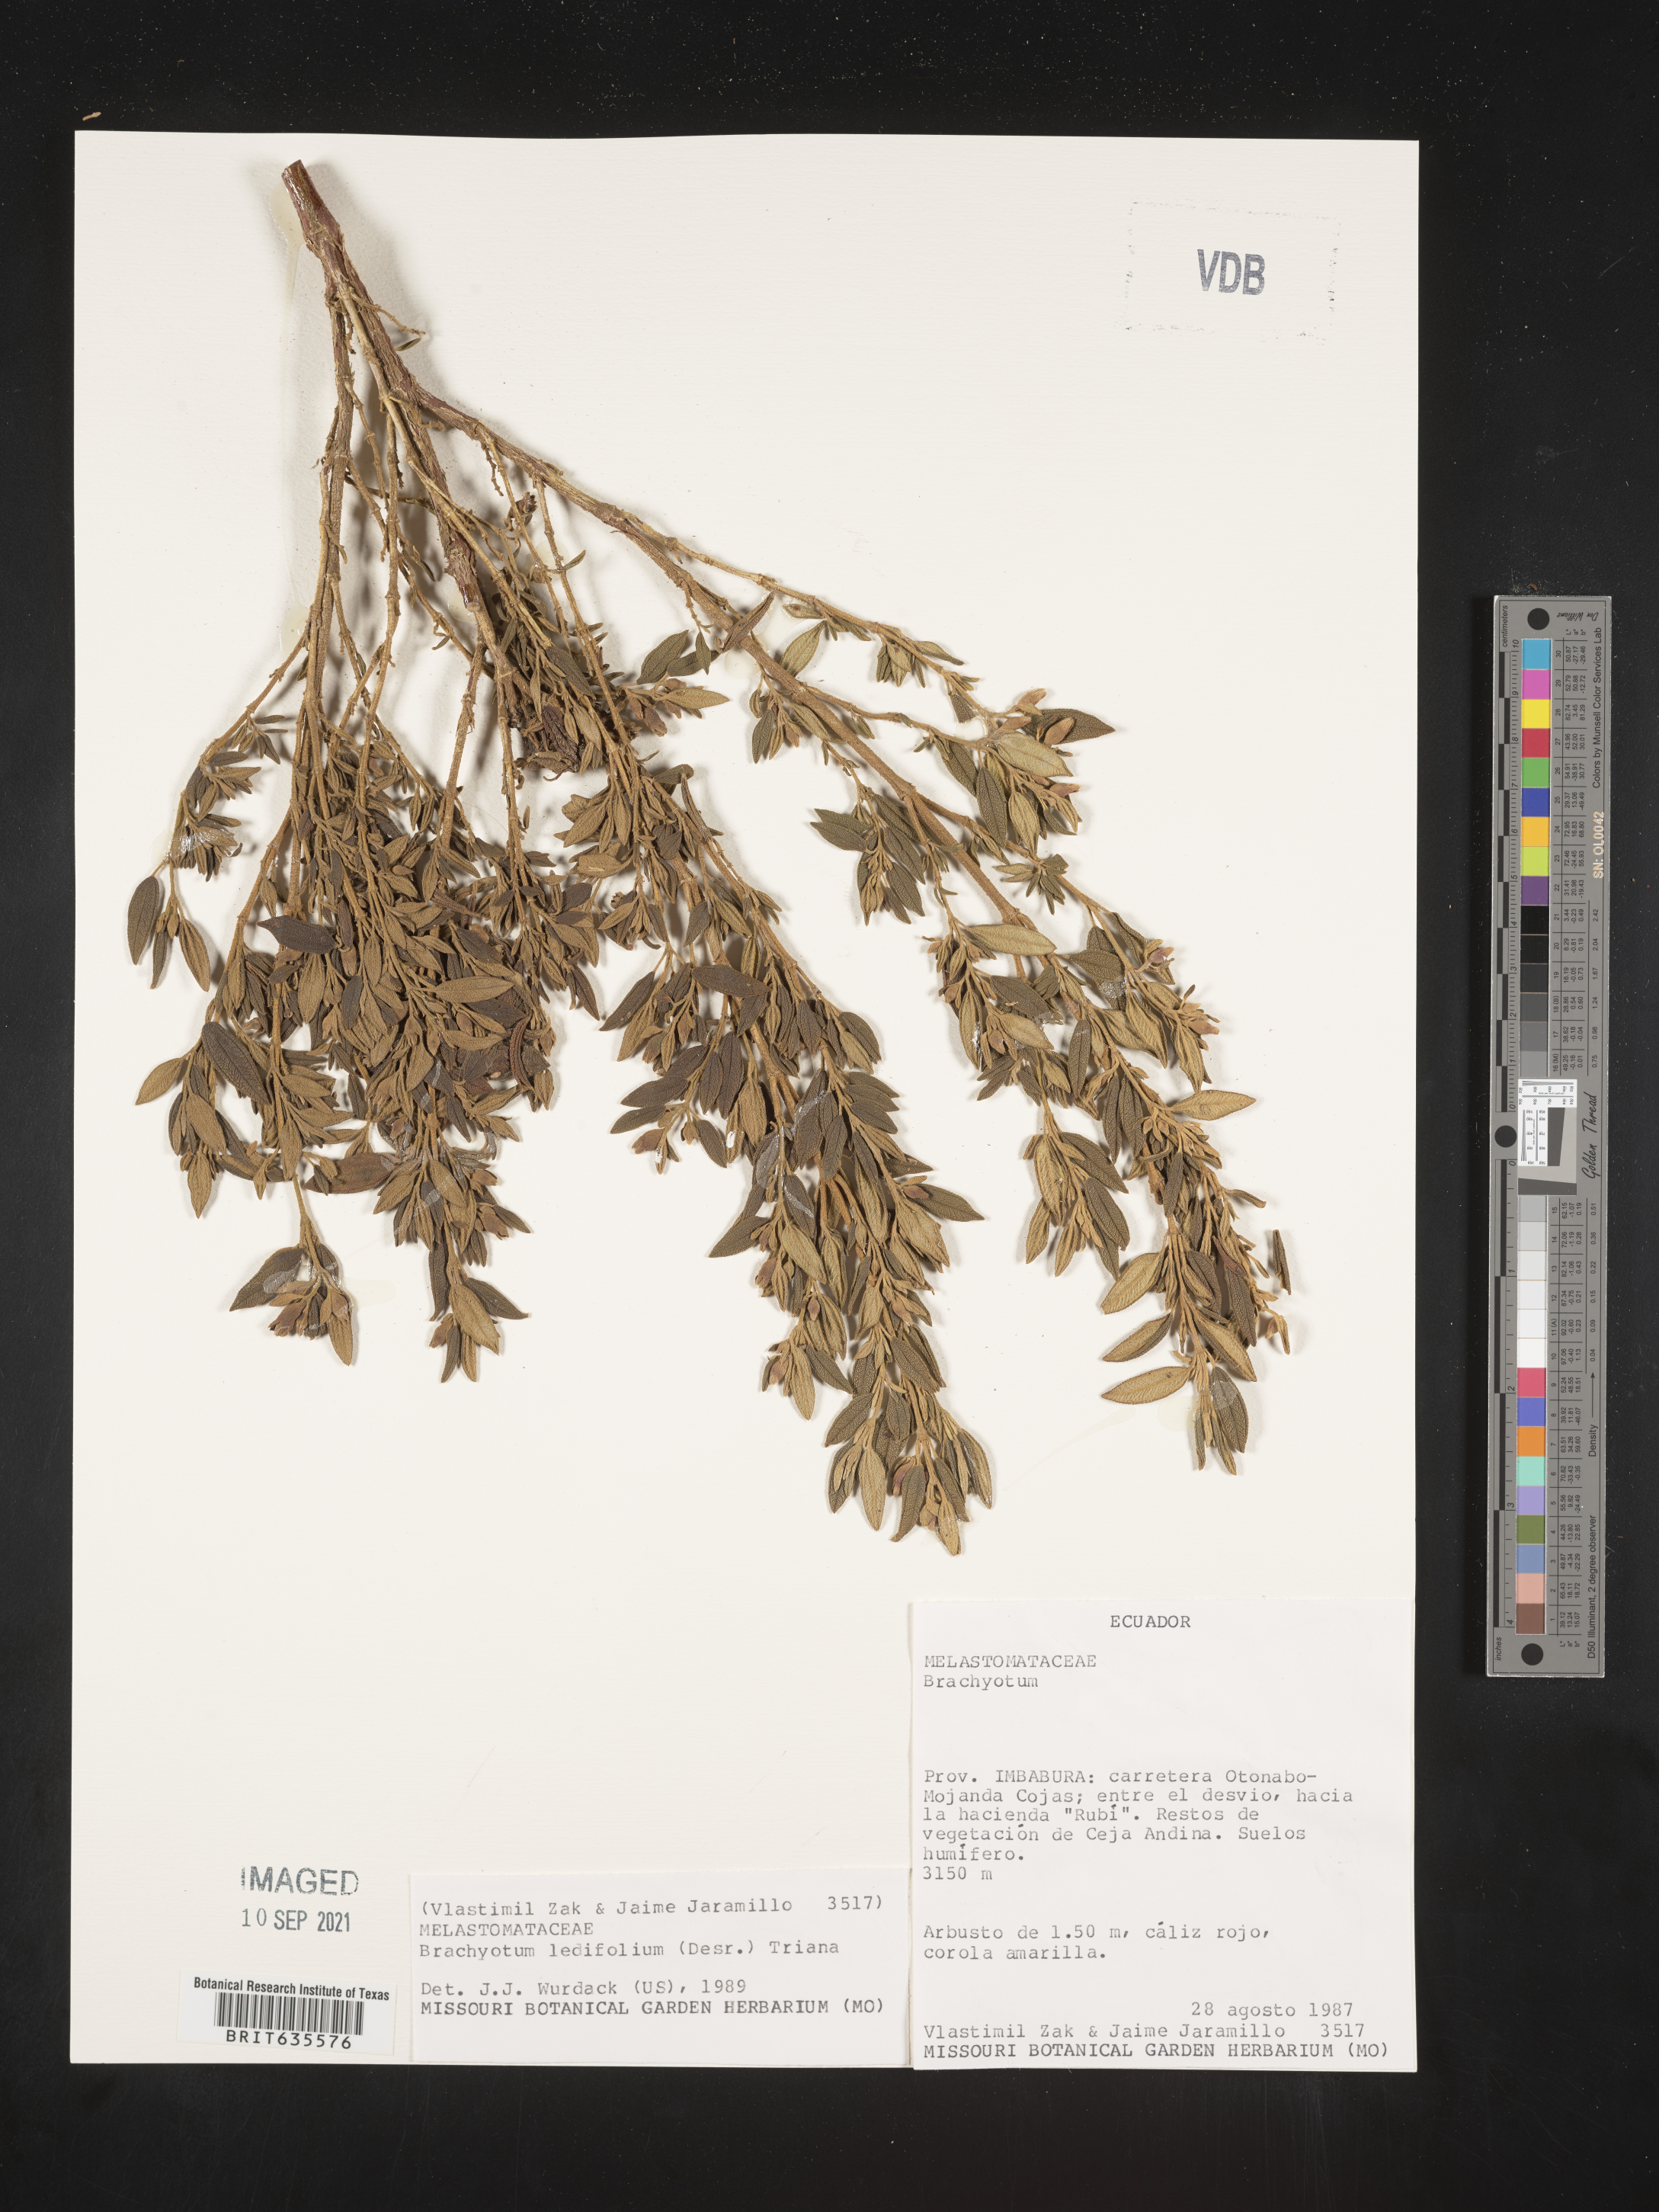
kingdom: Plantae
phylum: Tracheophyta
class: Magnoliopsida
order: Myrtales
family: Melastomataceae
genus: Brachyotum
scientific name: Brachyotum
